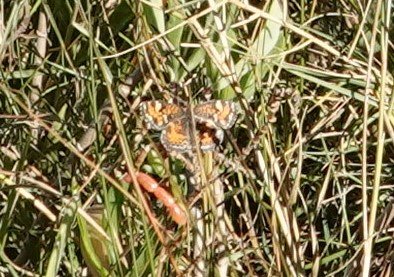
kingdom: Animalia
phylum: Arthropoda
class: Insecta
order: Lepidoptera
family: Nymphalidae
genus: Phyciodes
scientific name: Phyciodes phaon
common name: Phaon Crescent
